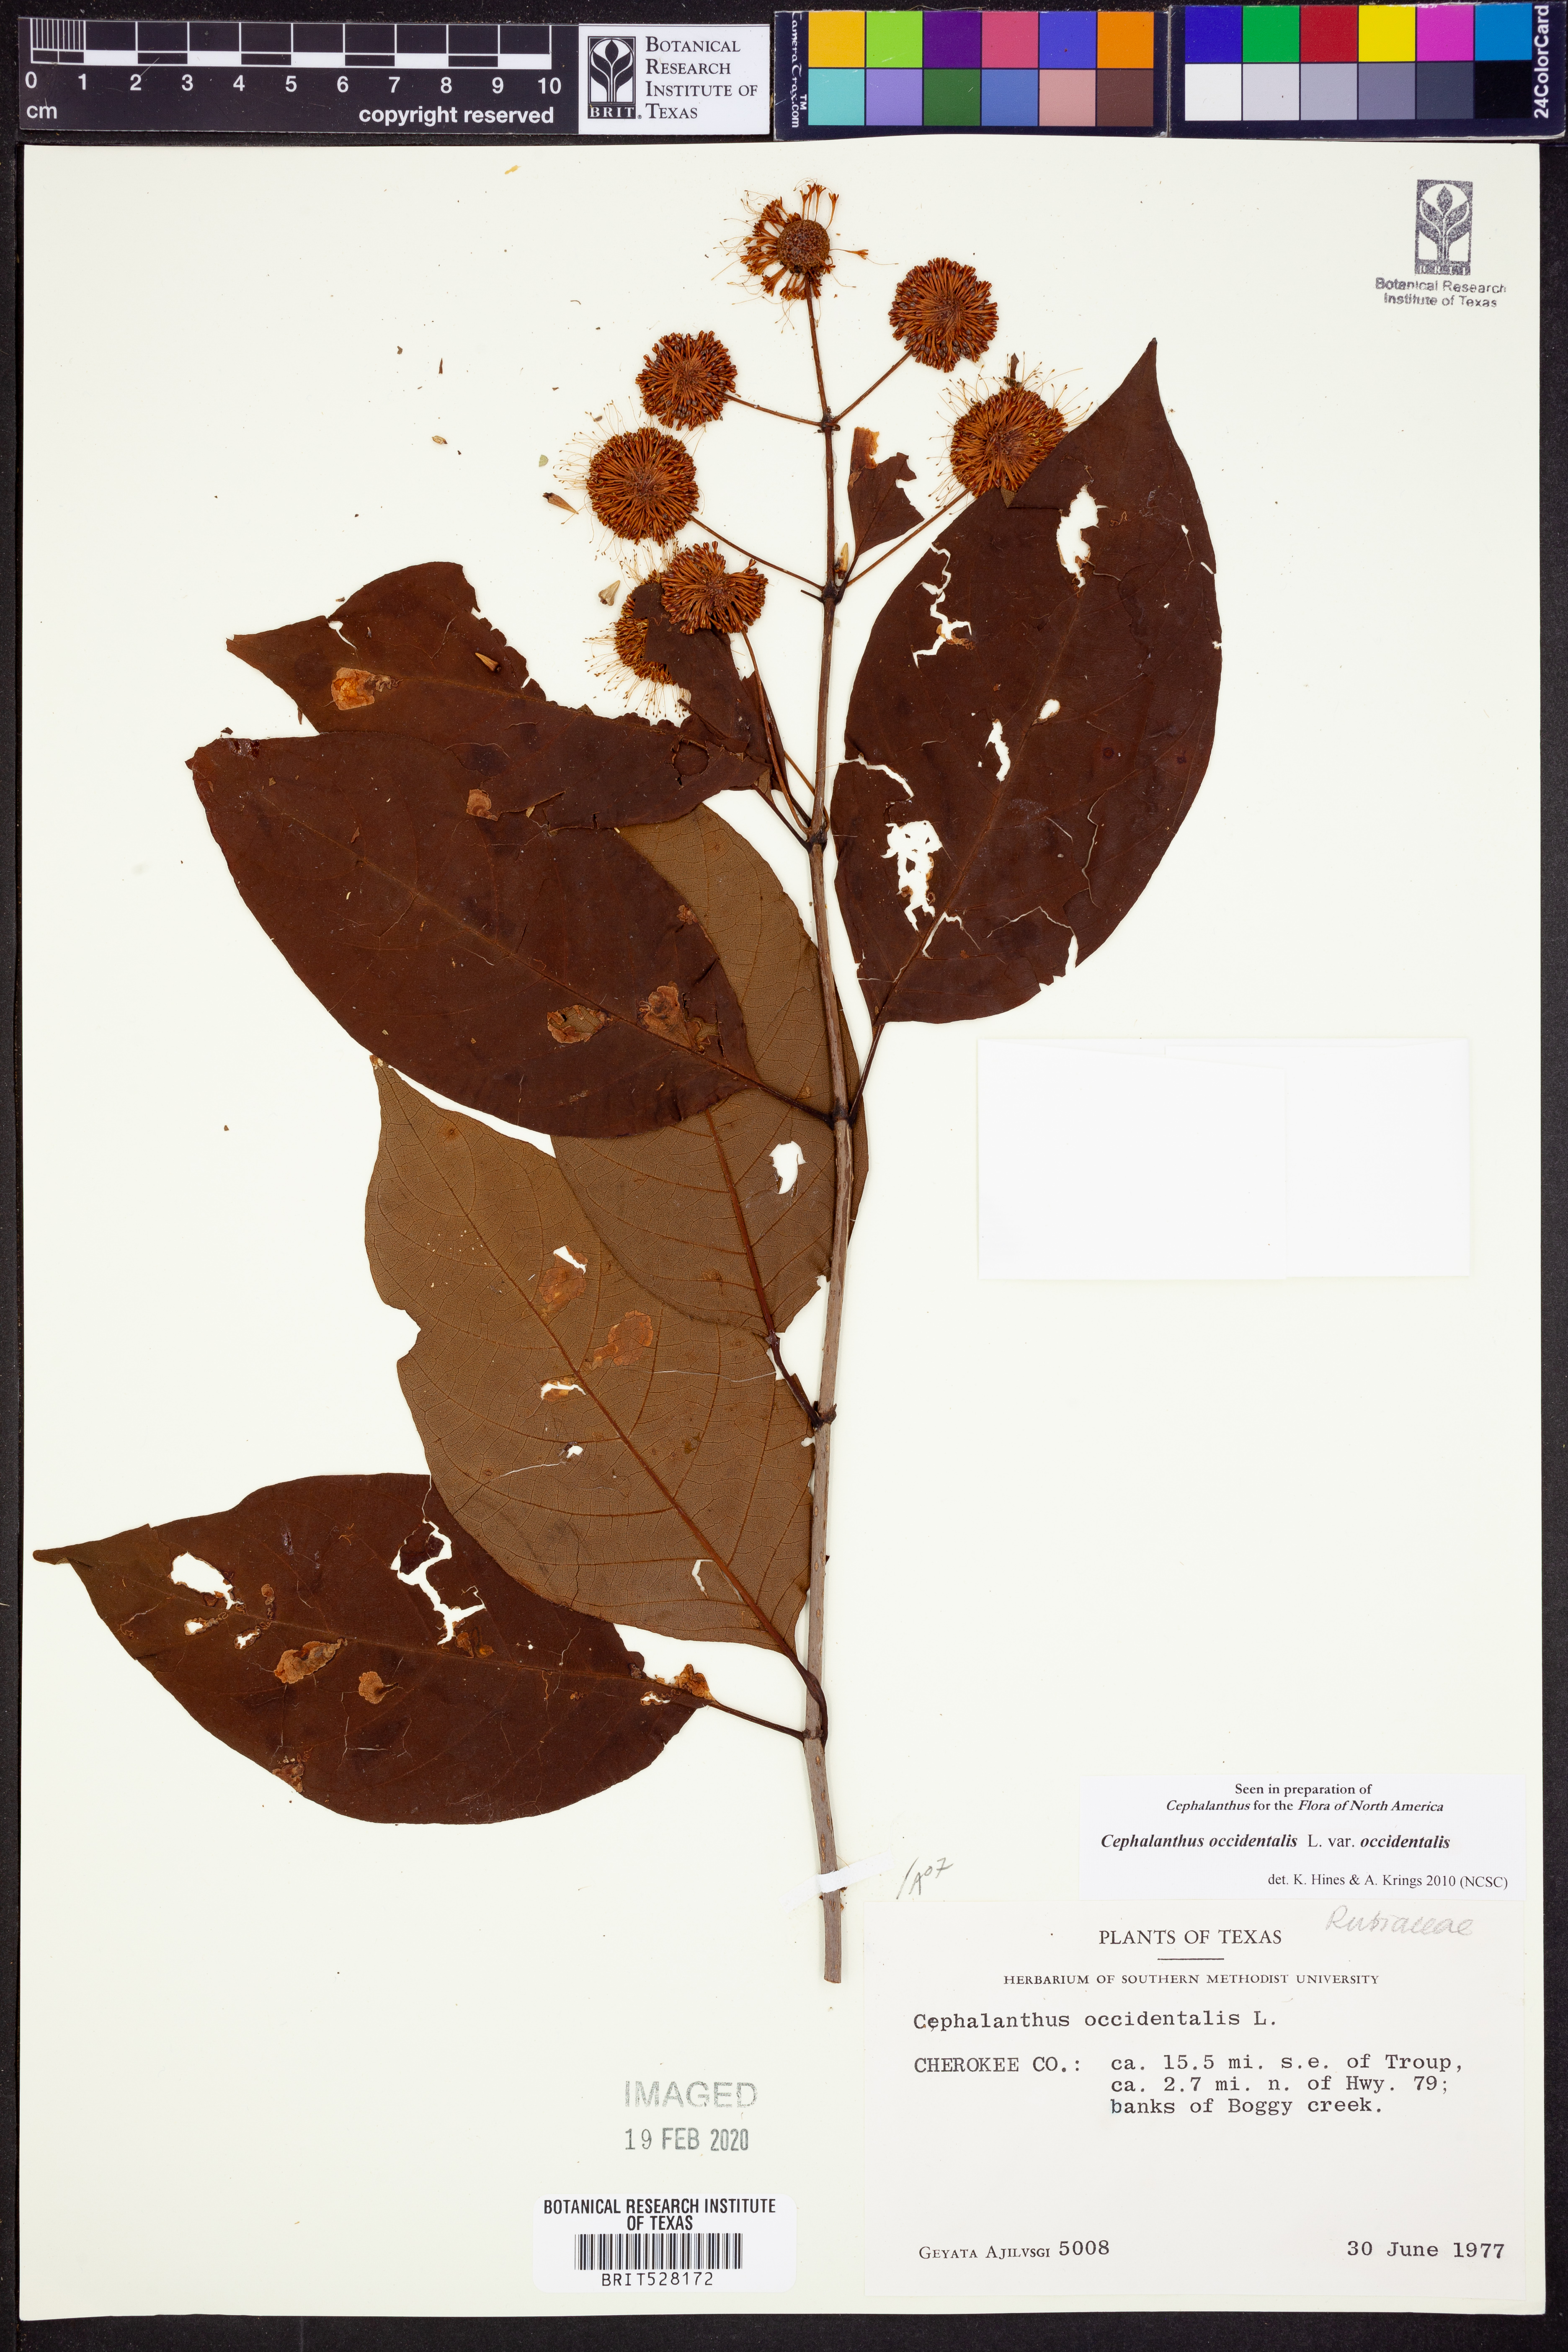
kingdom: Plantae
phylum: Tracheophyta
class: Magnoliopsida
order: Gentianales
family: Rubiaceae
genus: Cephalanthus
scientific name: Cephalanthus occidentalis
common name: Button-willow
